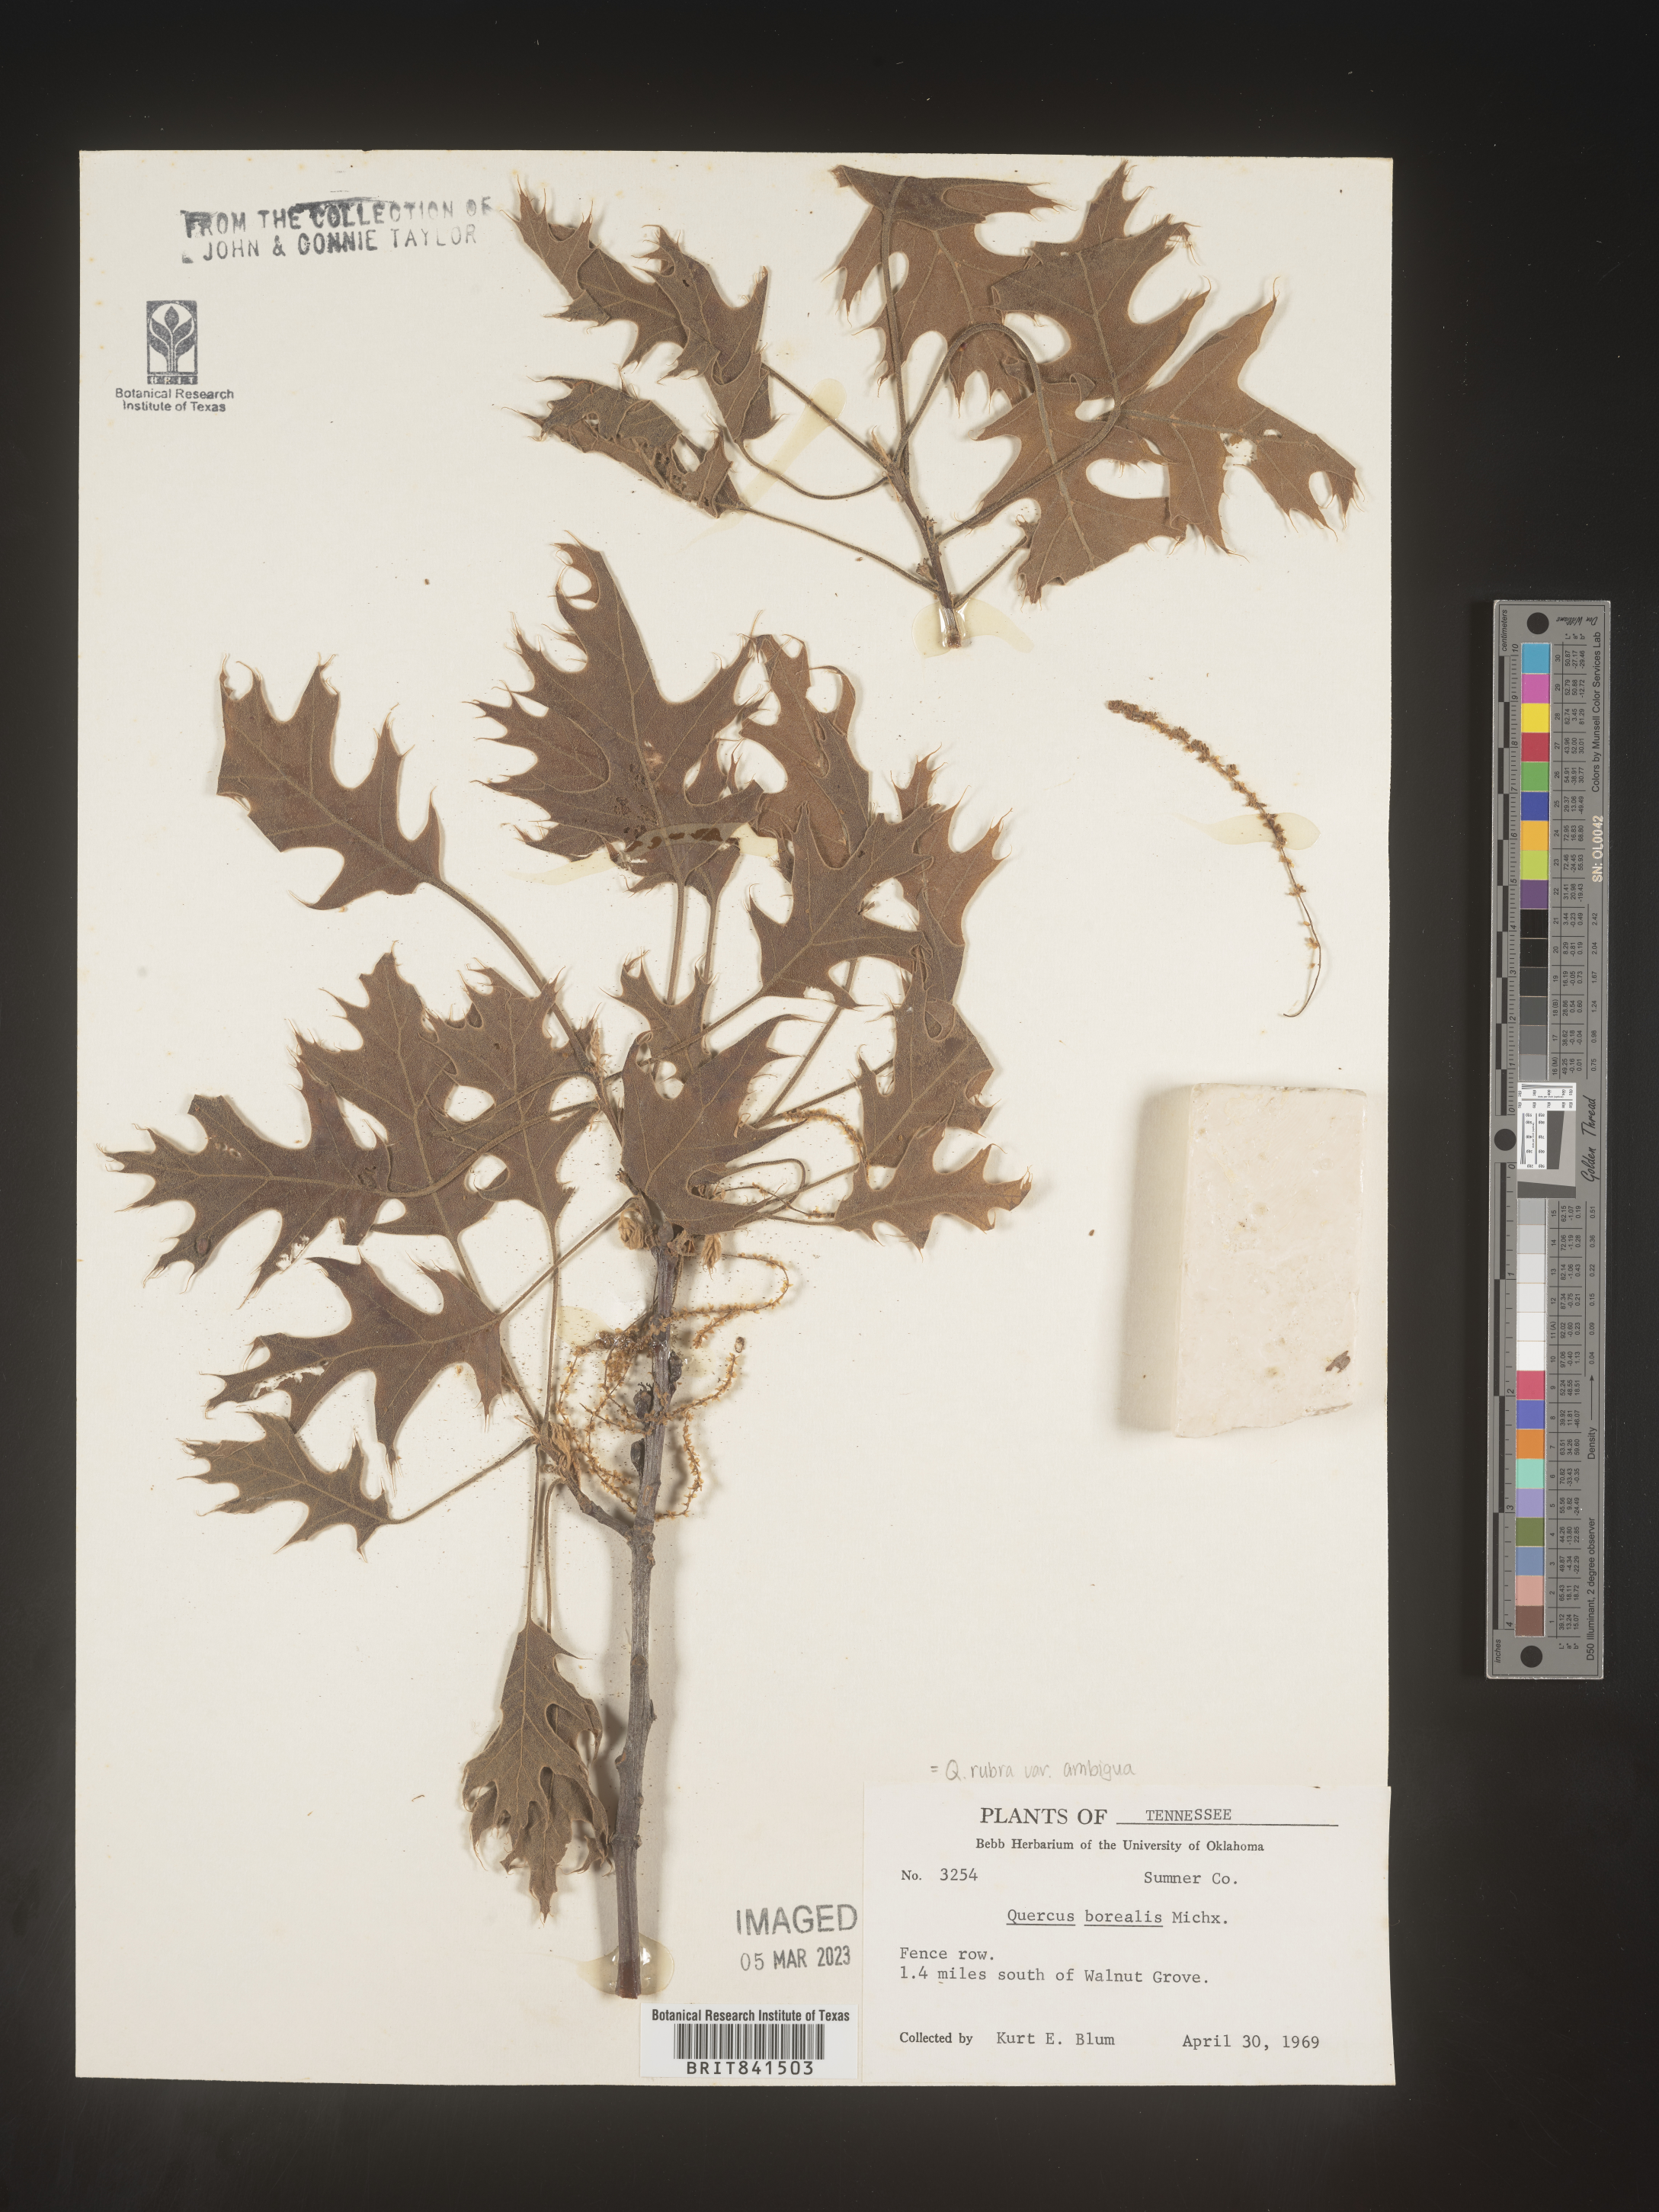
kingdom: Plantae
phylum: Tracheophyta
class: Magnoliopsida
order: Fagales
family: Fagaceae
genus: Quercus
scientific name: Quercus rubra
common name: Red oak
